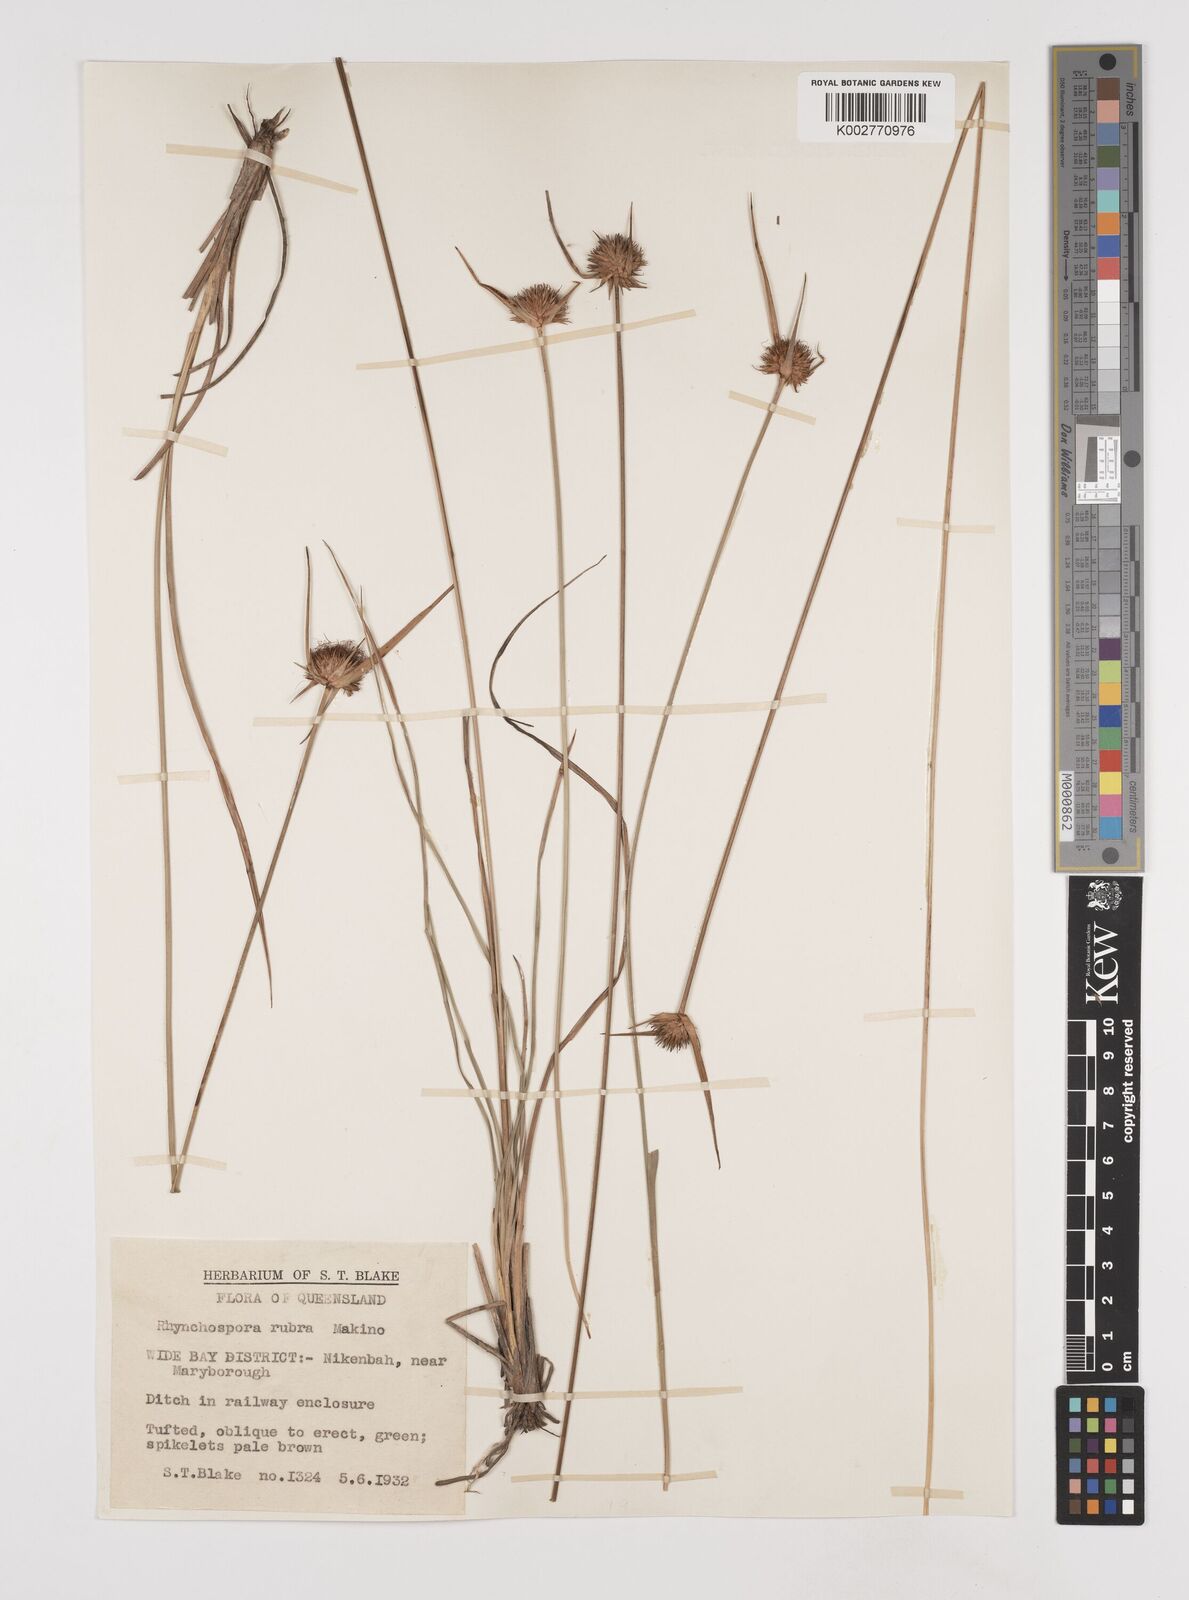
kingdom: Plantae
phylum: Tracheophyta
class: Liliopsida
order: Poales
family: Cyperaceae
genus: Rhynchospora
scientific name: Rhynchospora rubra
